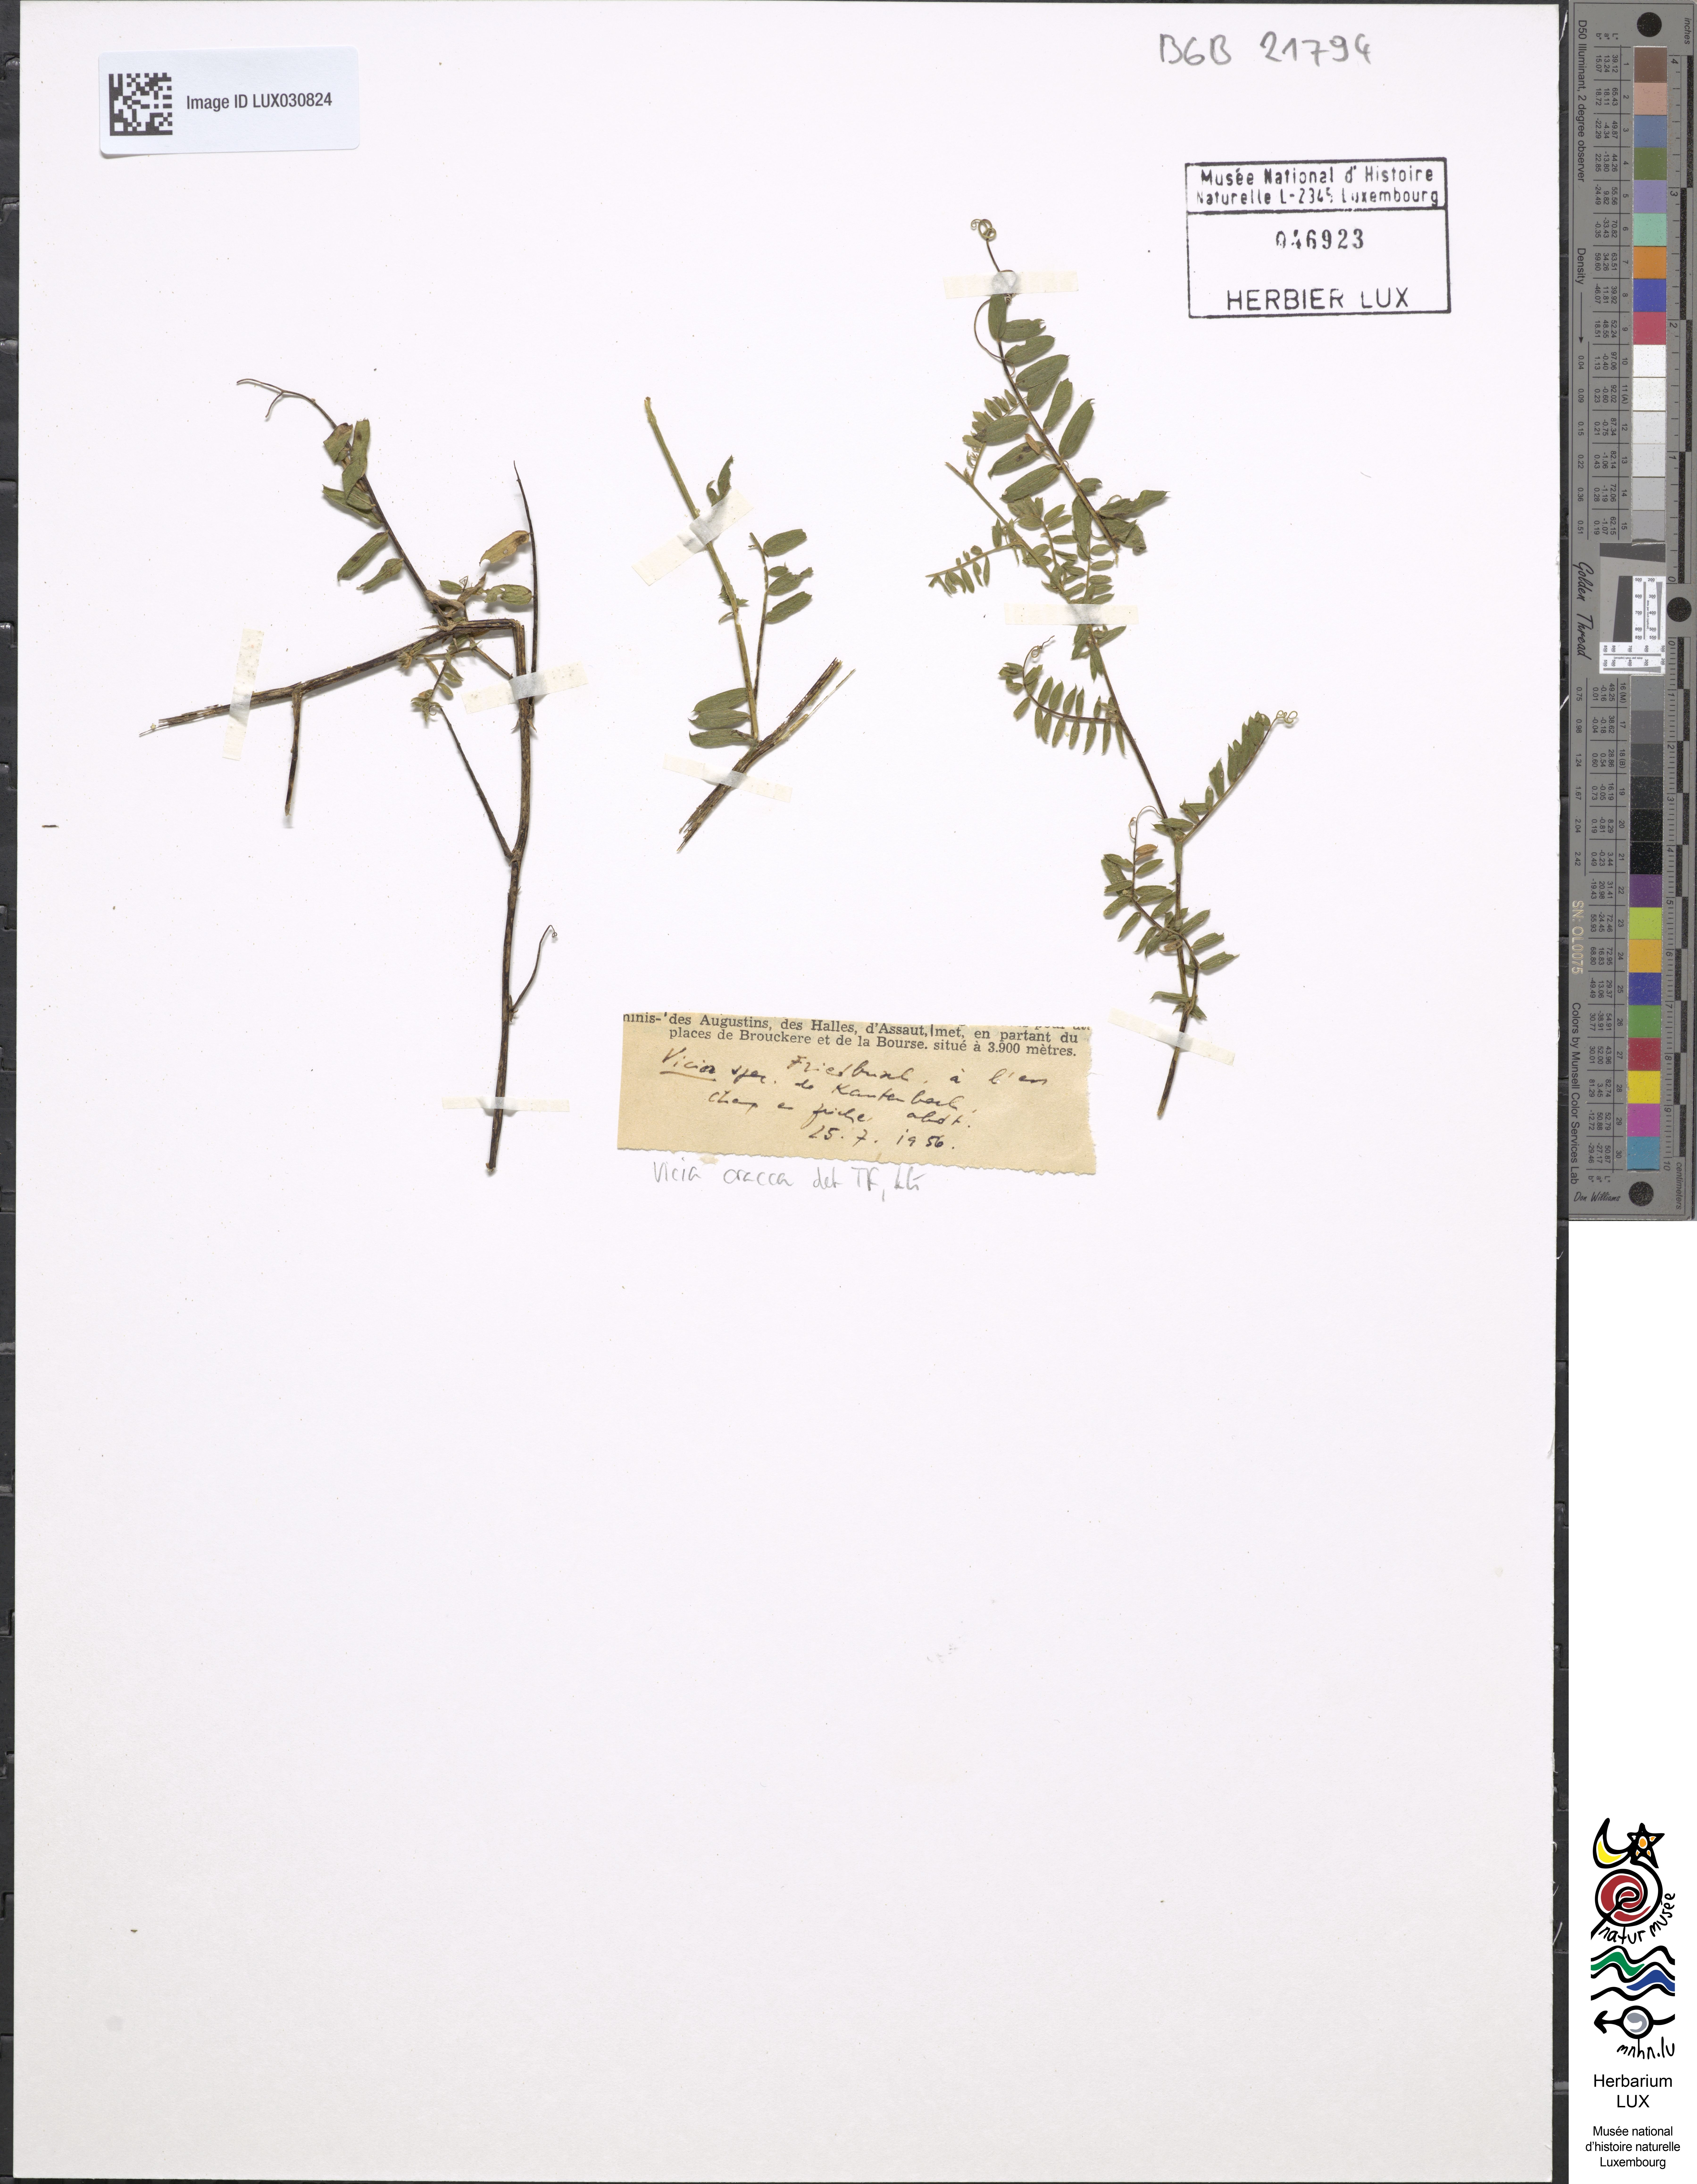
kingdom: Plantae
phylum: Tracheophyta
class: Magnoliopsida
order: Fabales
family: Fabaceae
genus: Vicia
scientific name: Vicia cracca
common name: Bird vetch
